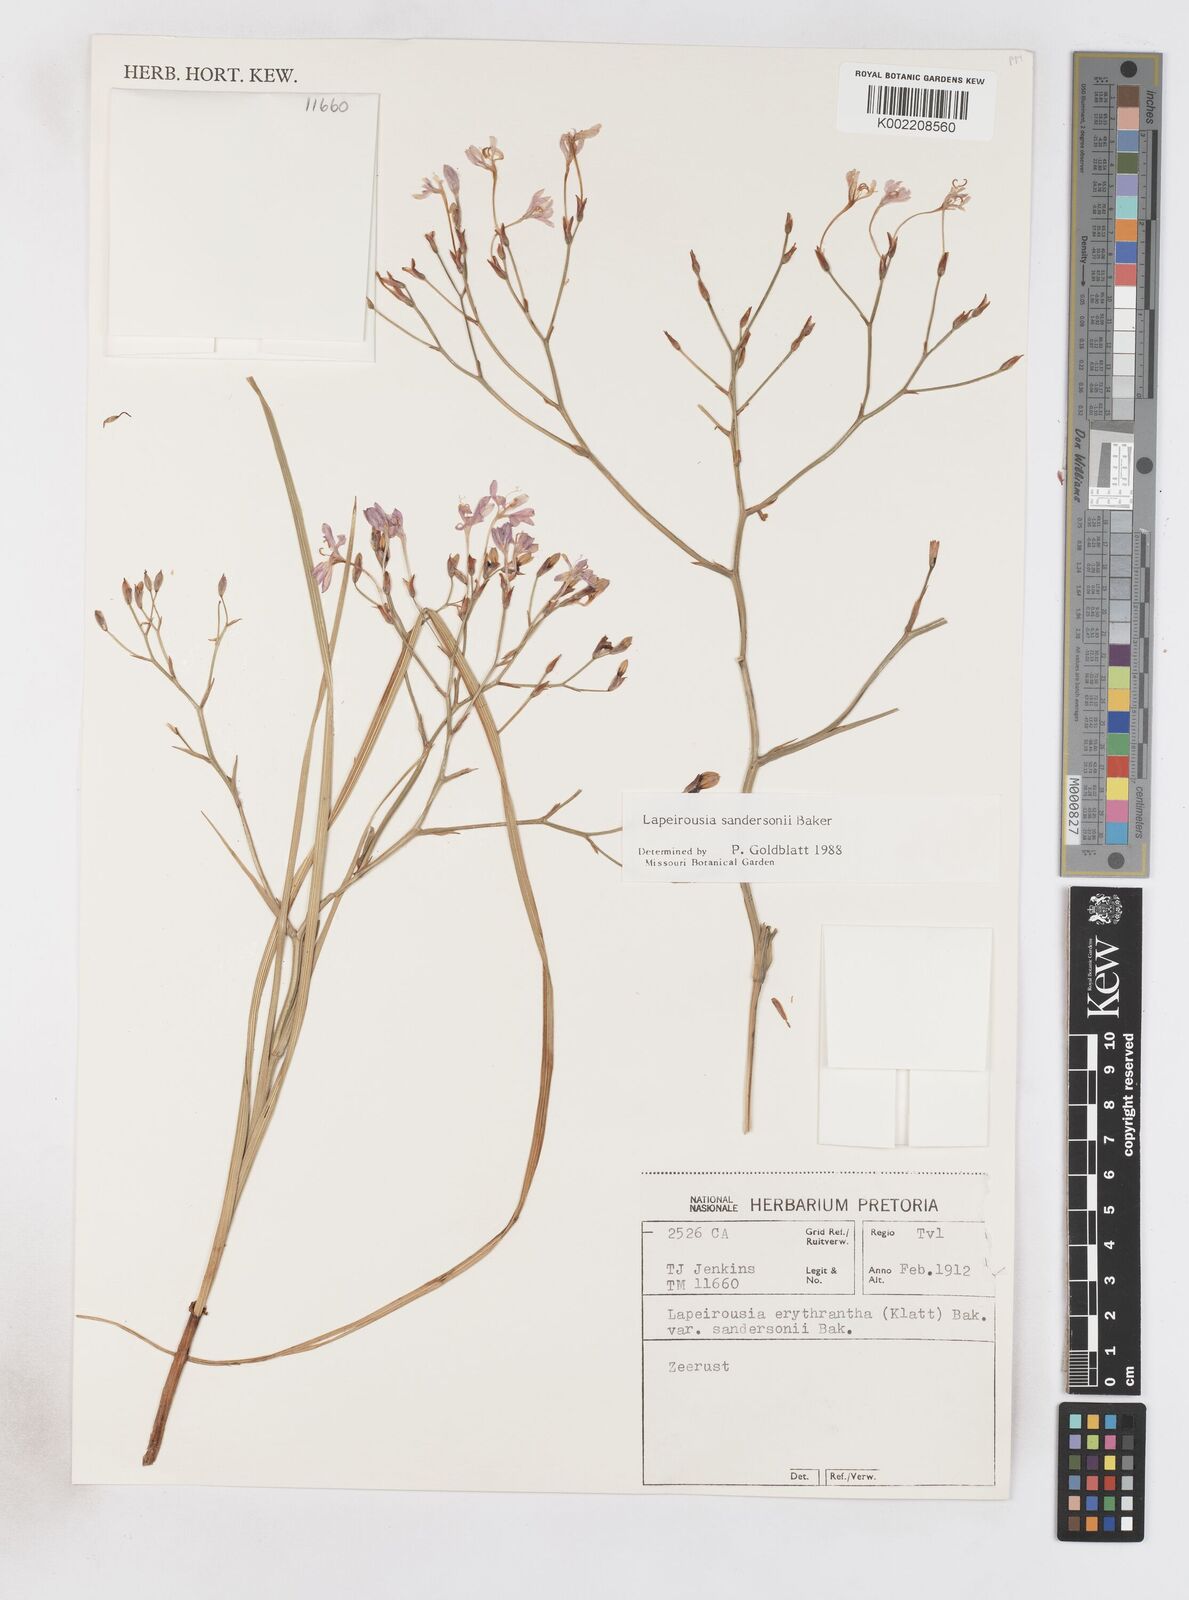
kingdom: Plantae
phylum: Tracheophyta
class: Liliopsida
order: Asparagales
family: Iridaceae
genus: Afrosolen
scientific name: Afrosolen sandersonii
